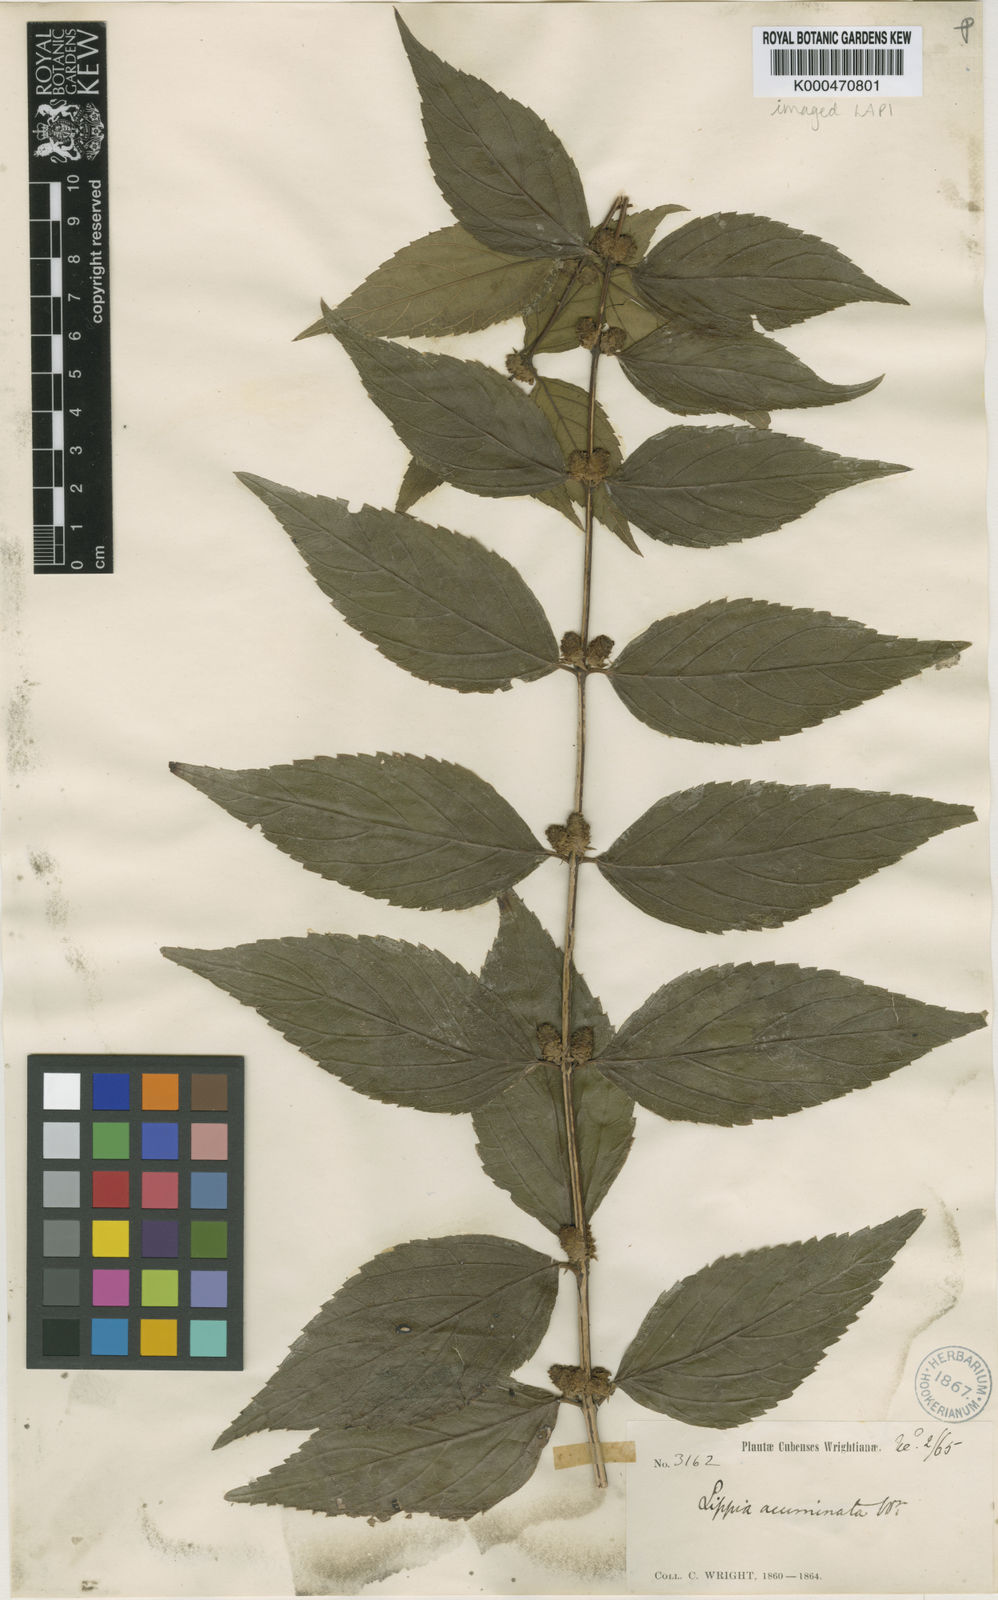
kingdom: Plantae
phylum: Tracheophyta
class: Magnoliopsida
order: Lamiales
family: Verbenaceae
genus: Lippia
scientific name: Lippia acuminata
